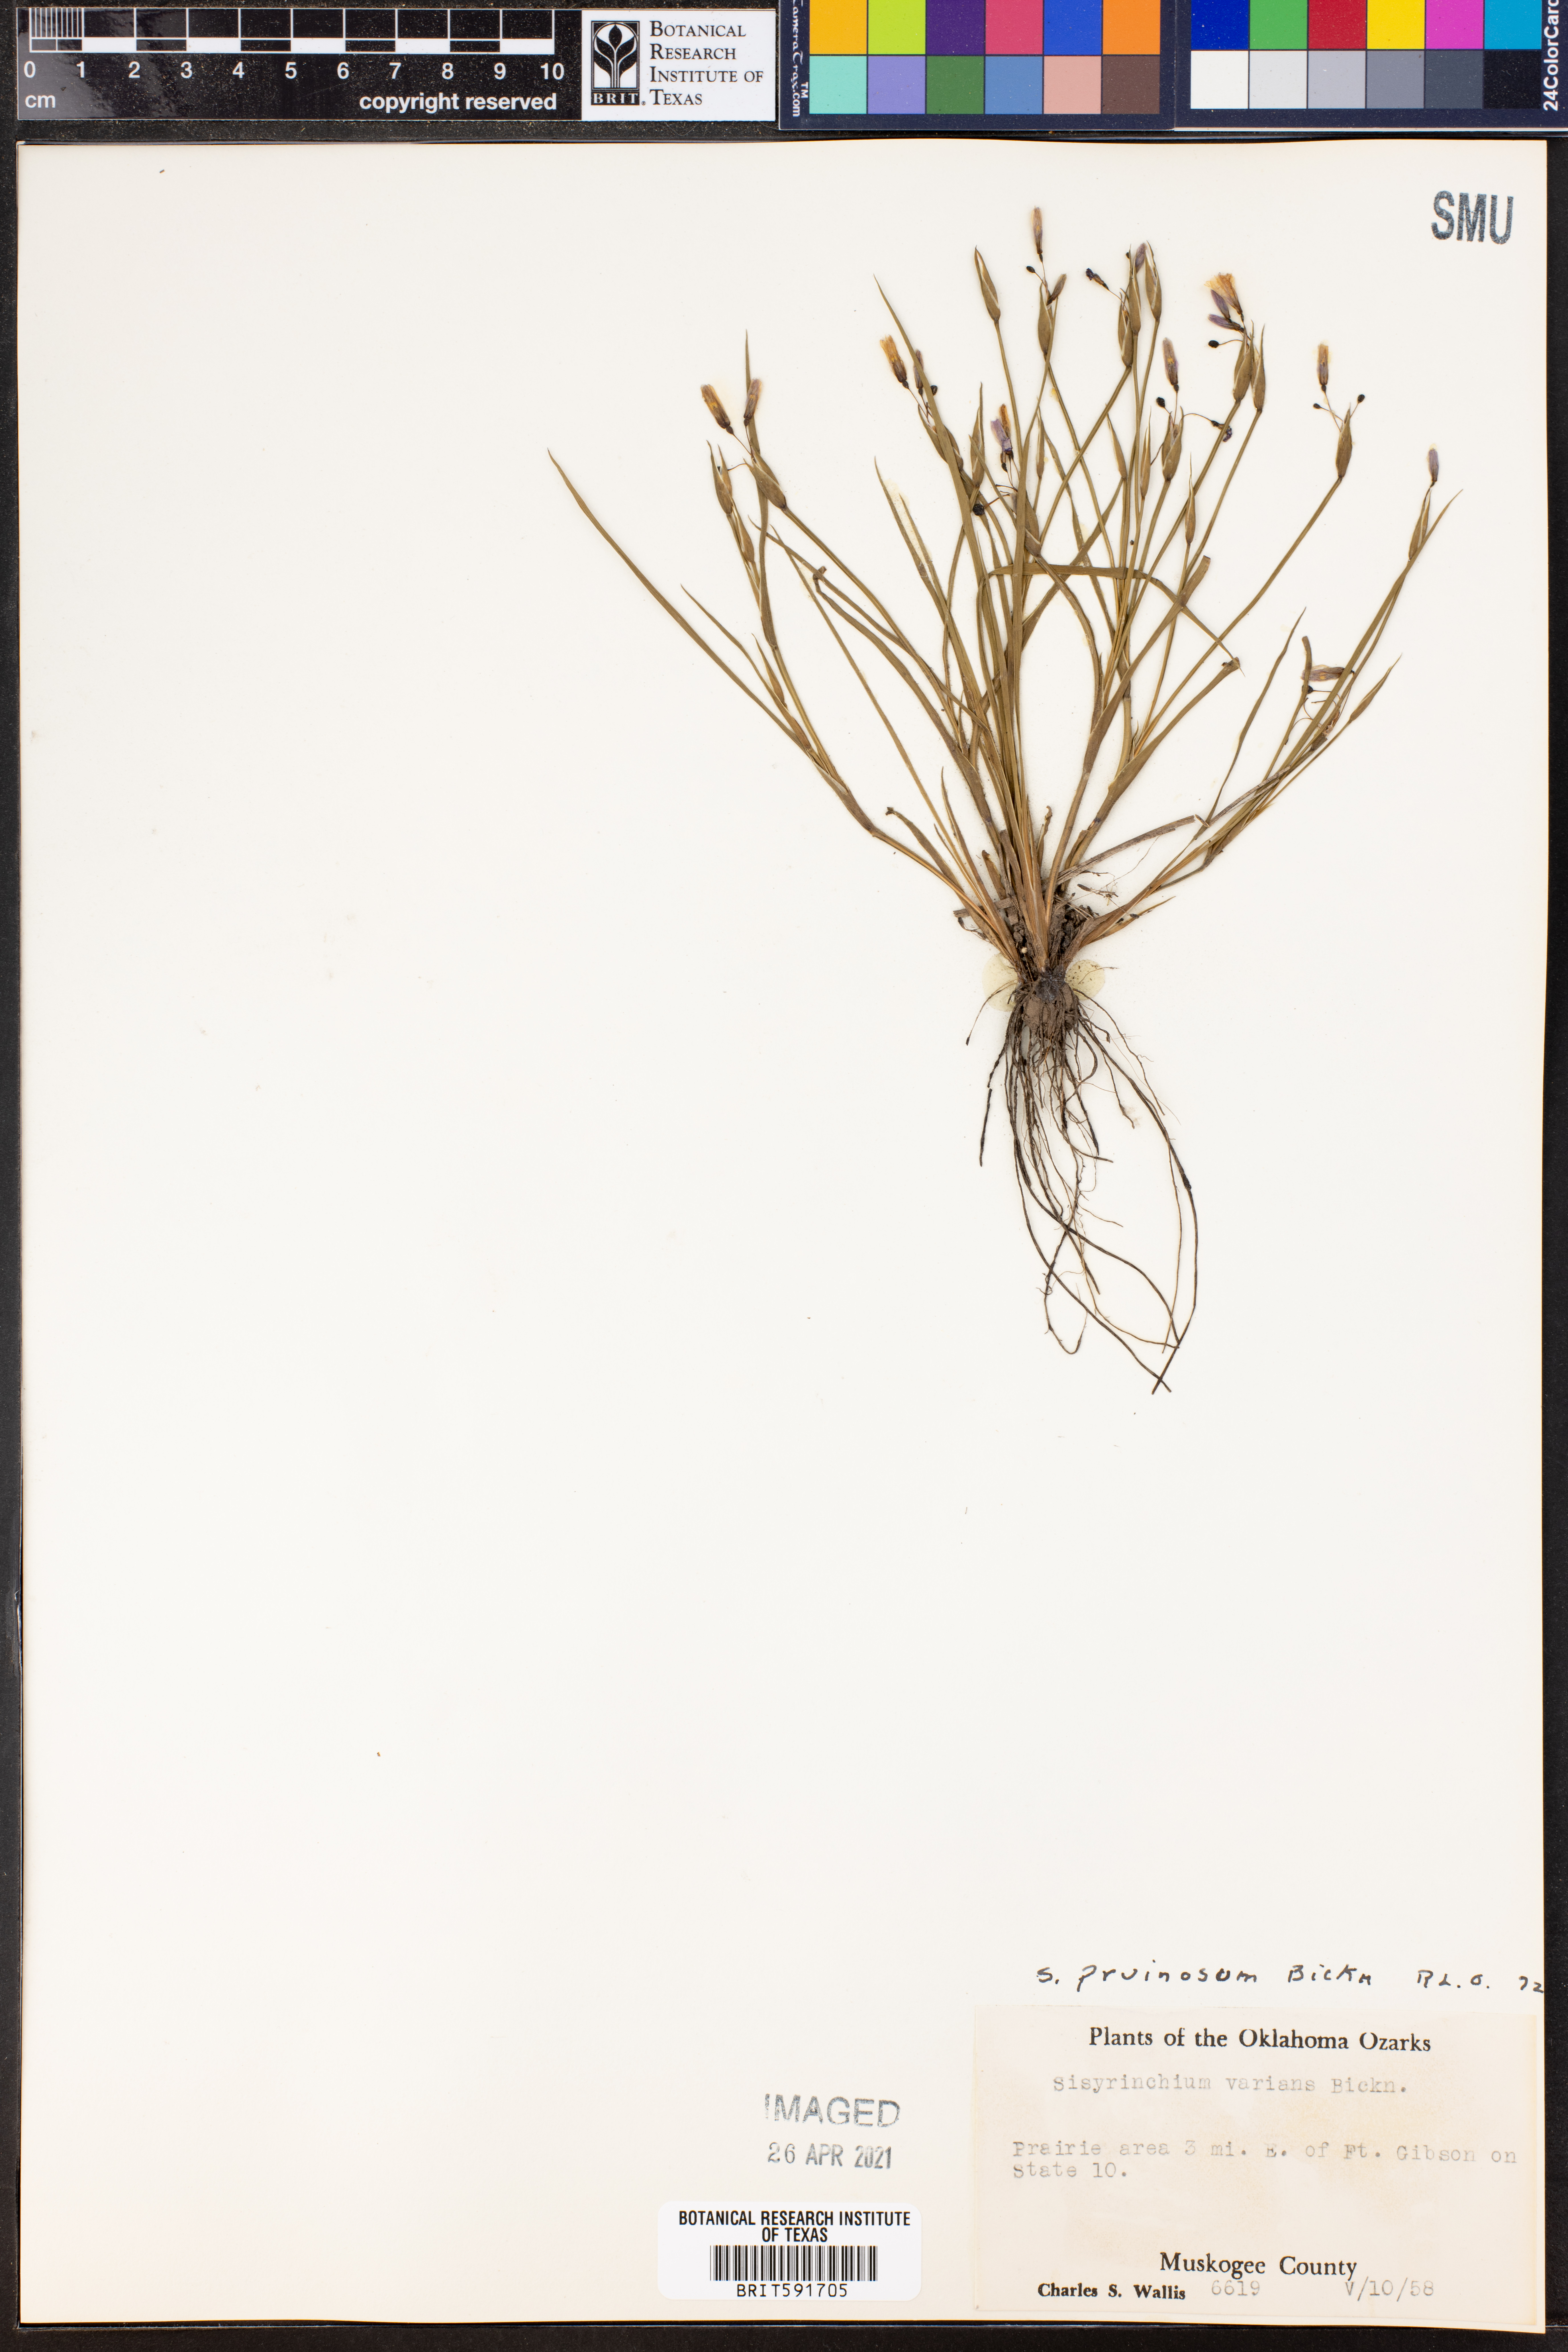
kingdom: Plantae
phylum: Tracheophyta
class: Liliopsida
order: Asparagales
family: Iridaceae
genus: Sisyrinchium
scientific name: Sisyrinchium pruinosum
